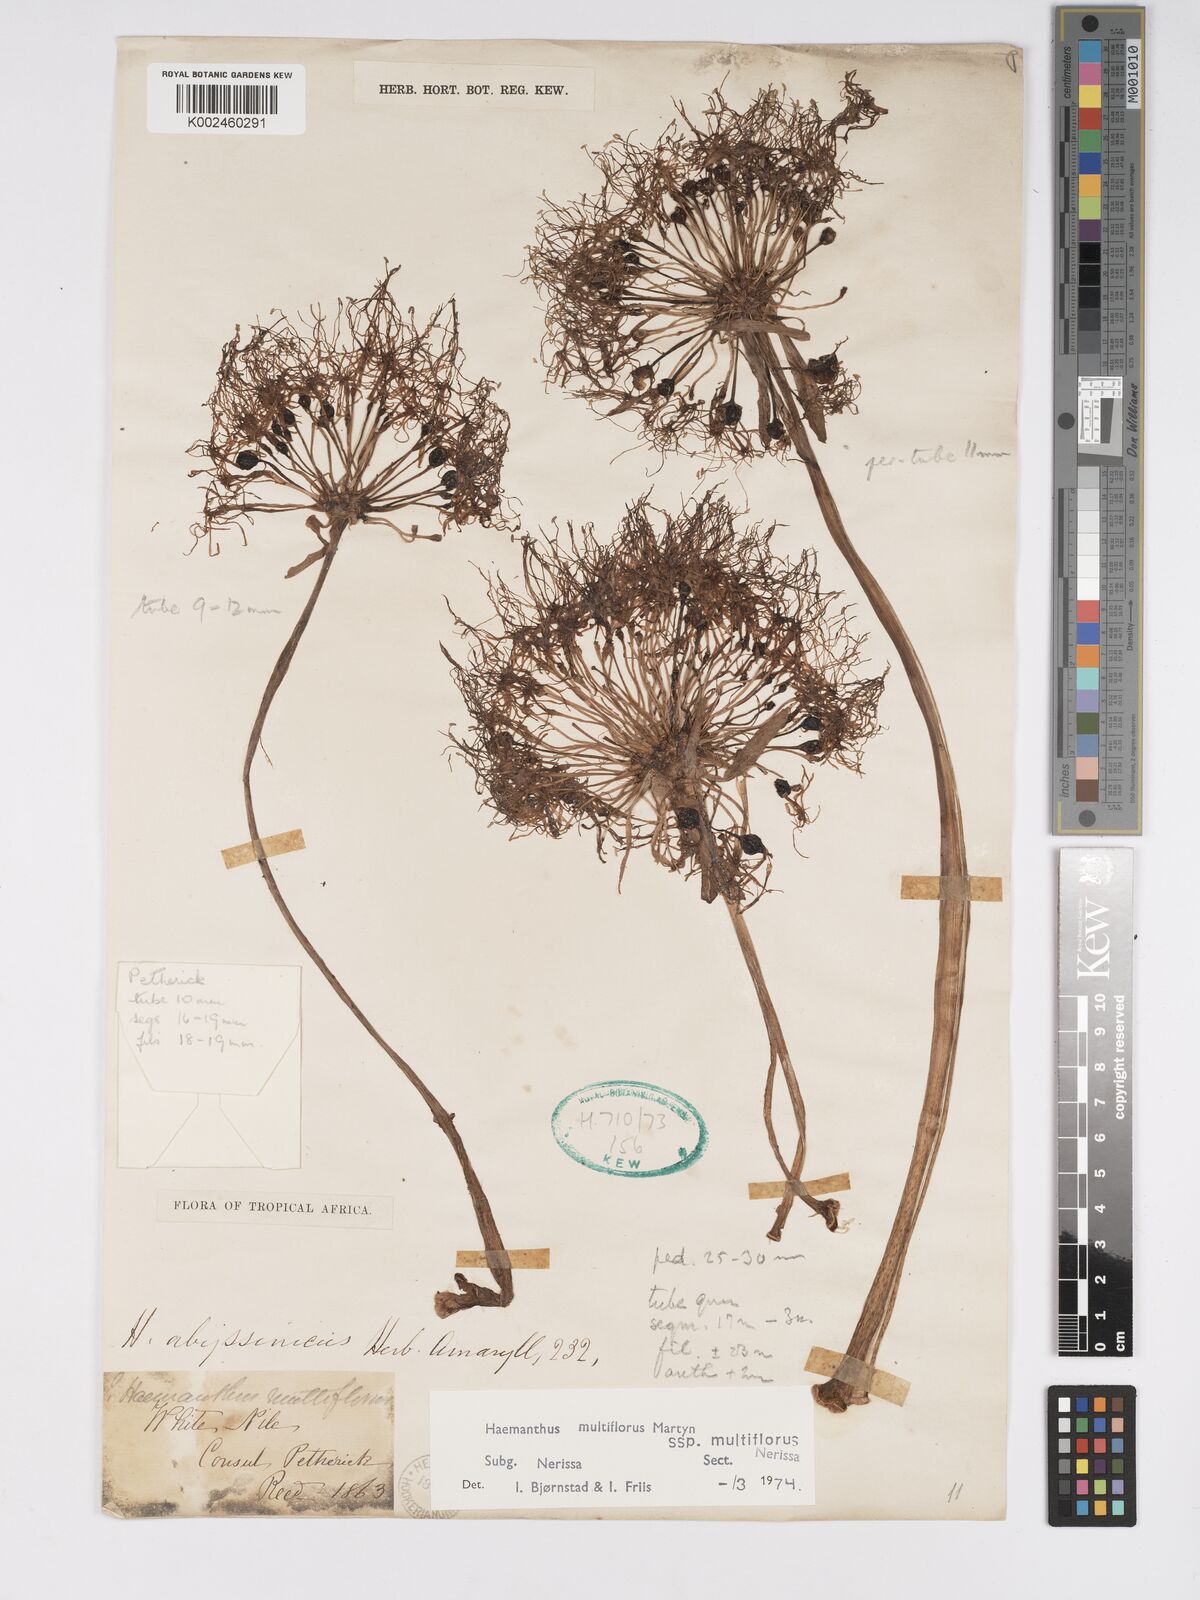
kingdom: Plantae
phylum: Tracheophyta
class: Liliopsida
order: Asparagales
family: Amaryllidaceae
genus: Scadoxus
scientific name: Scadoxus multiflorus
